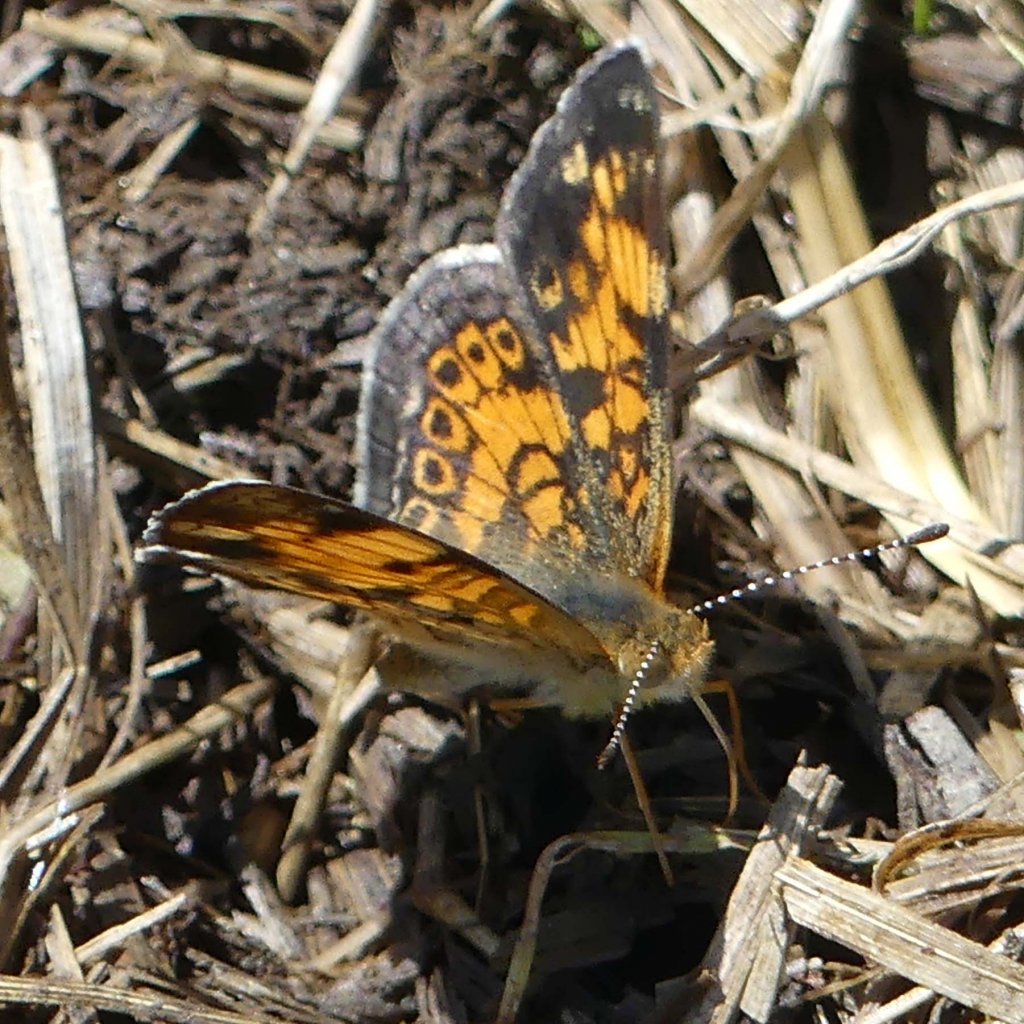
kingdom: Animalia
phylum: Arthropoda
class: Insecta
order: Lepidoptera
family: Nymphalidae
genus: Phyciodes
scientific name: Phyciodes tharos
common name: Pearl Crescent
